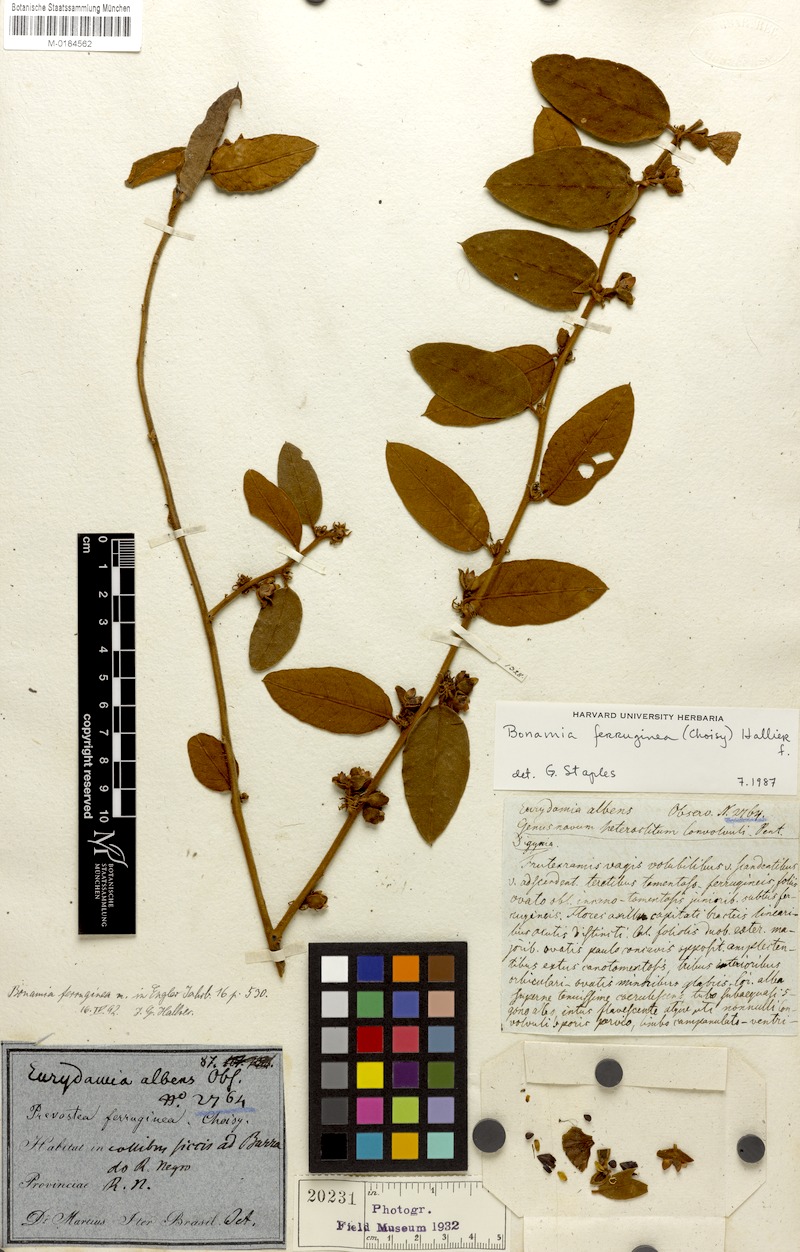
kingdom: Plantae
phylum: Tracheophyta
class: Magnoliopsida
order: Solanales
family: Convolvulaceae
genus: Bonamia
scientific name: Bonamia ferruginea
